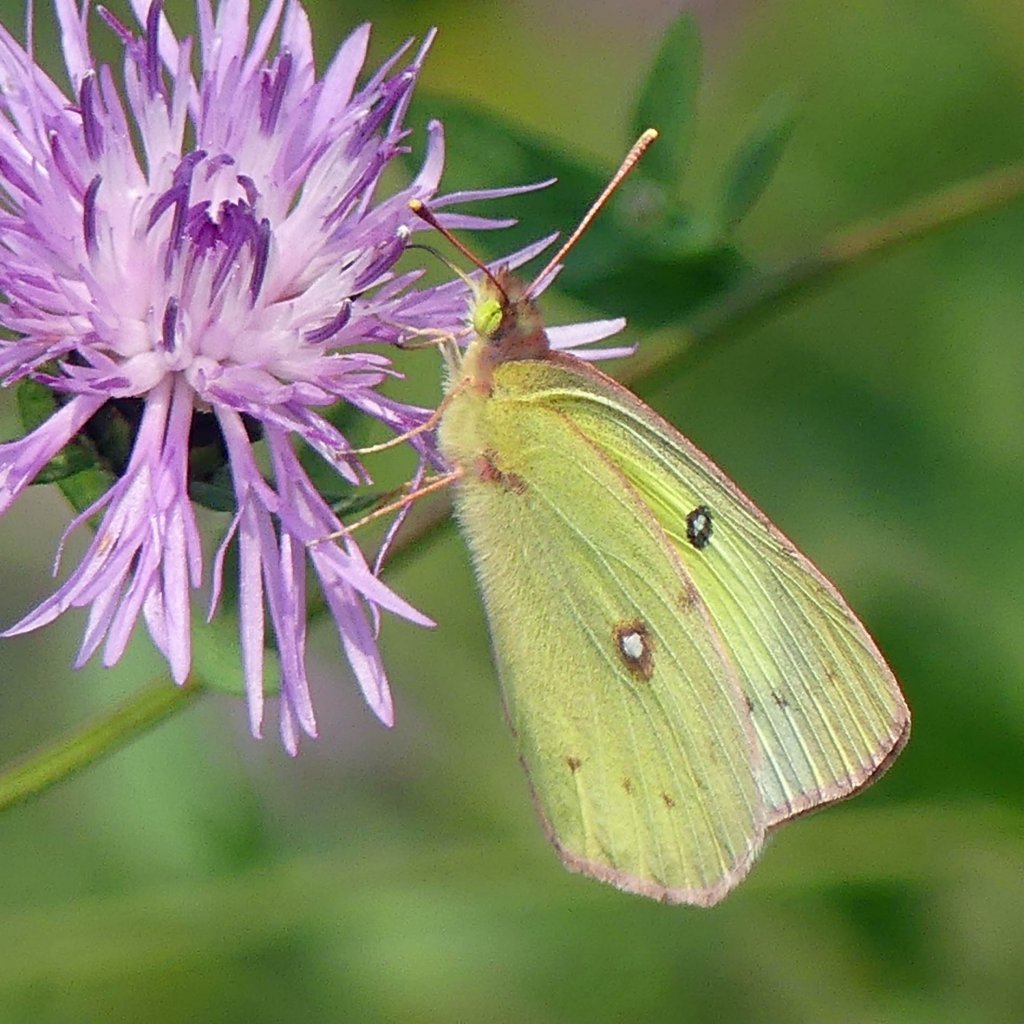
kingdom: Animalia
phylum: Arthropoda
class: Insecta
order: Lepidoptera
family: Pieridae
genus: Colias
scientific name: Colias philodice
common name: Clouded Sulphur
